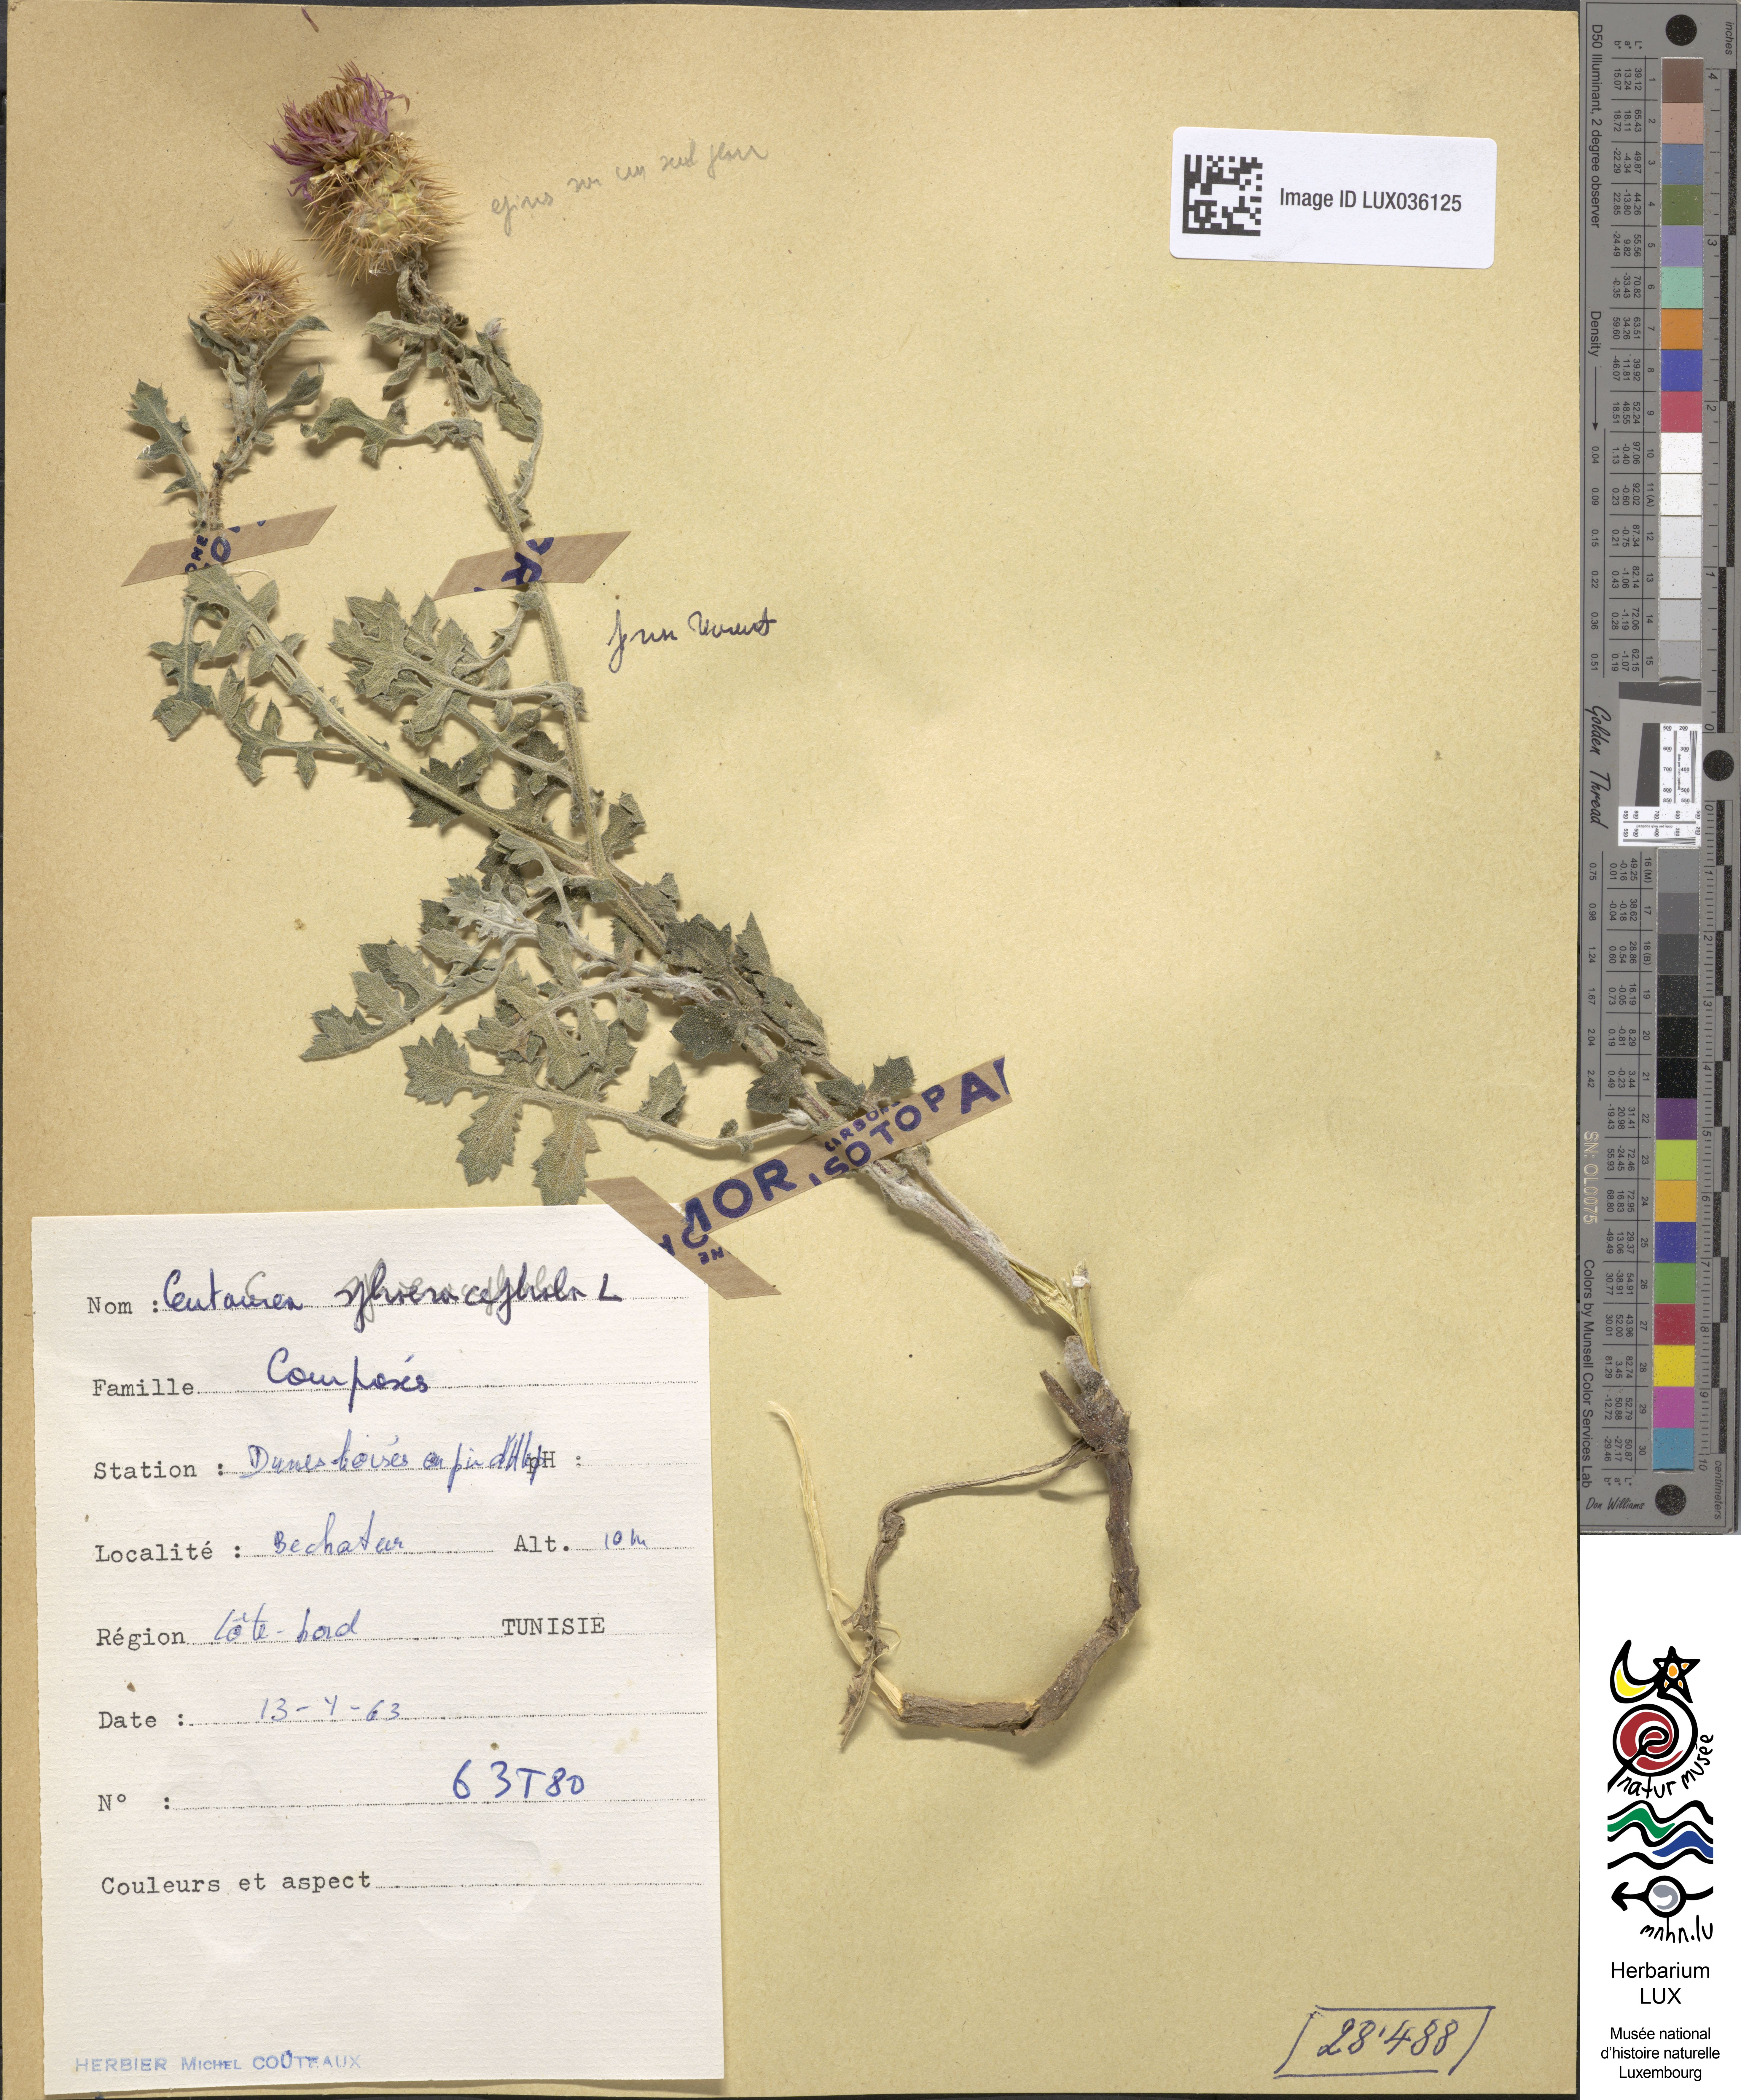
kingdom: Plantae
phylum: Tracheophyta
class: Magnoliopsida
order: Asterales
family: Asteraceae
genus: Centaurea
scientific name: Centaurea sphaerocephala
